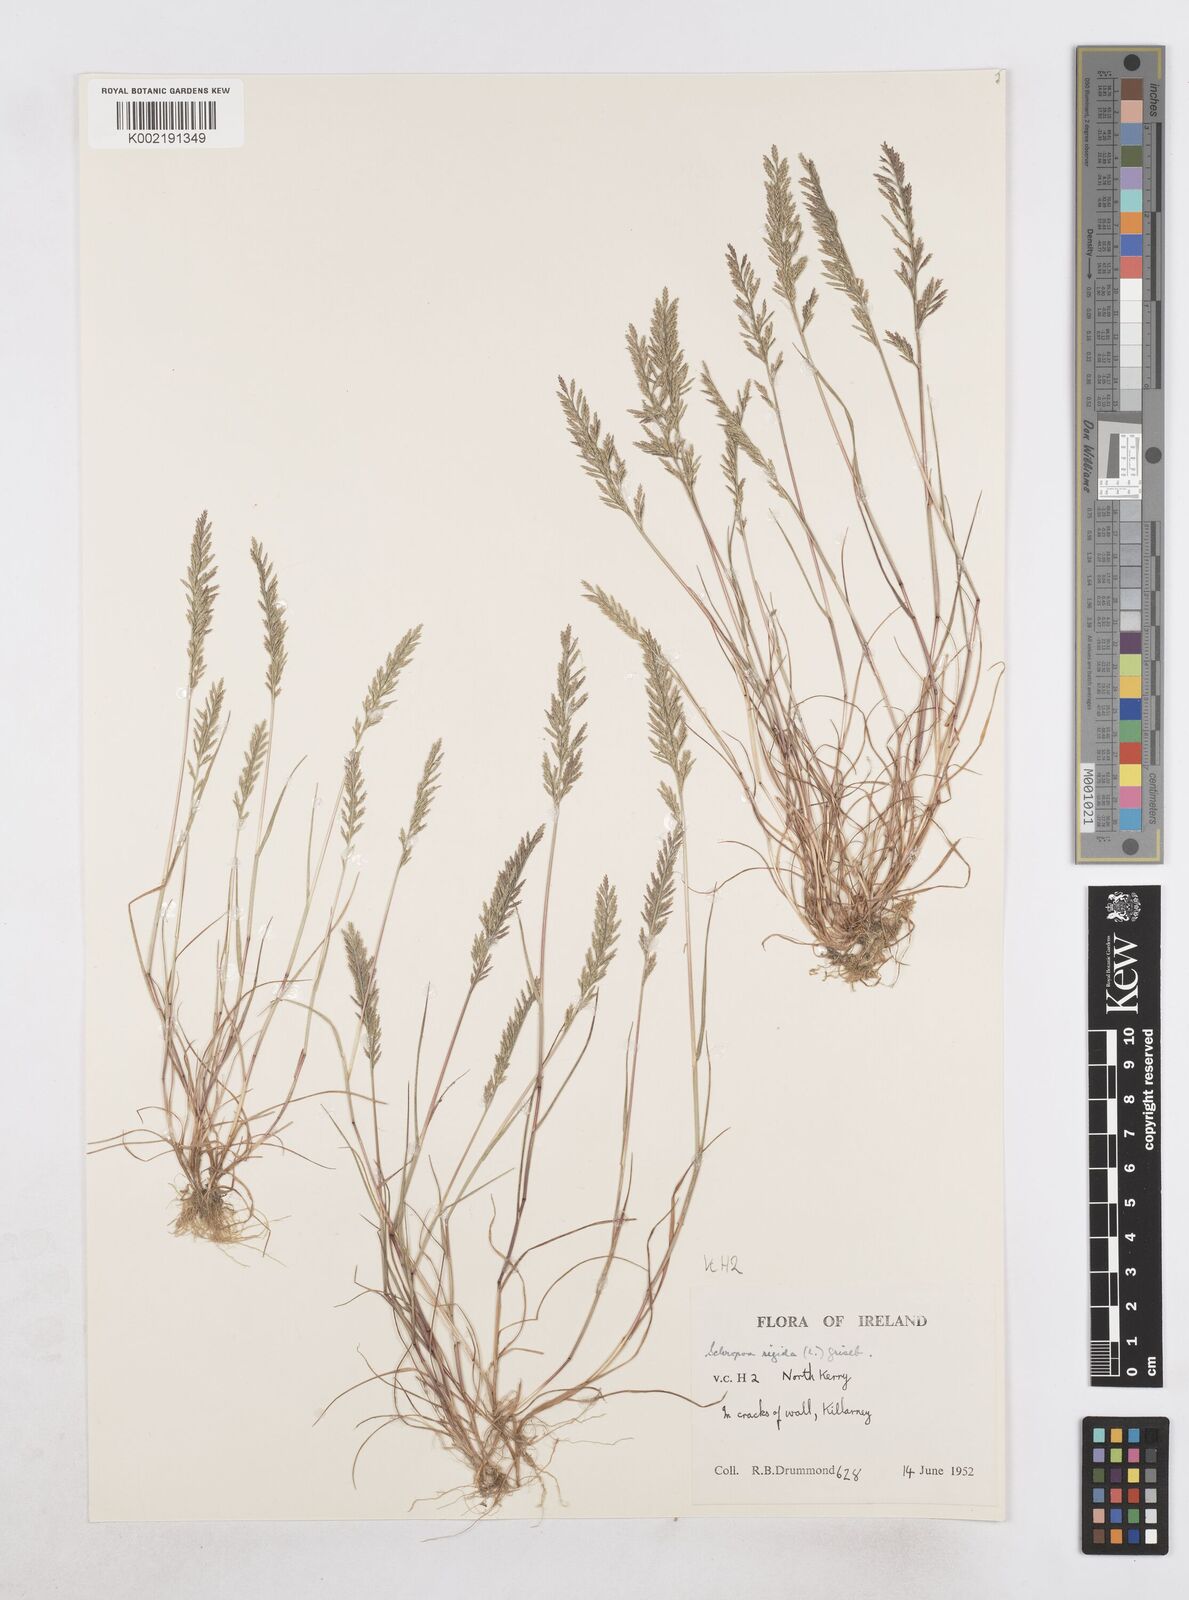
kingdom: Plantae
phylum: Tracheophyta
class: Liliopsida
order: Poales
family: Poaceae
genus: Catapodium
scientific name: Catapodium rigidum
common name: Fern-grass
